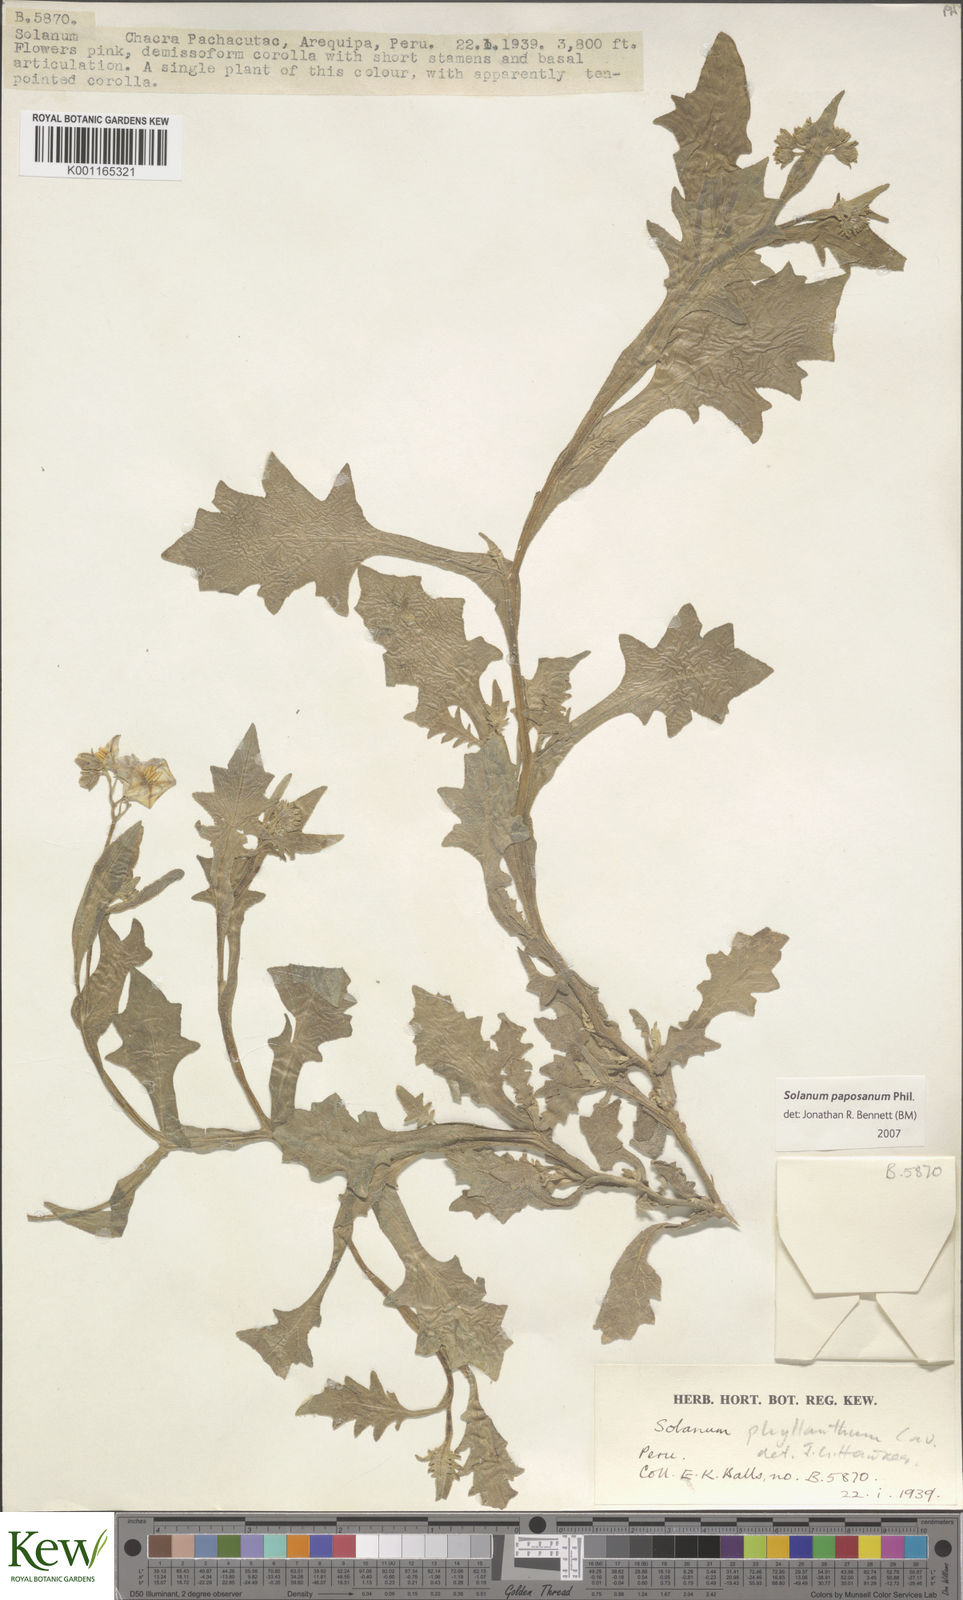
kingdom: Plantae
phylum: Tracheophyta
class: Magnoliopsida
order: Solanales
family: Solanaceae
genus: Solanum
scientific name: Solanum paposanum
